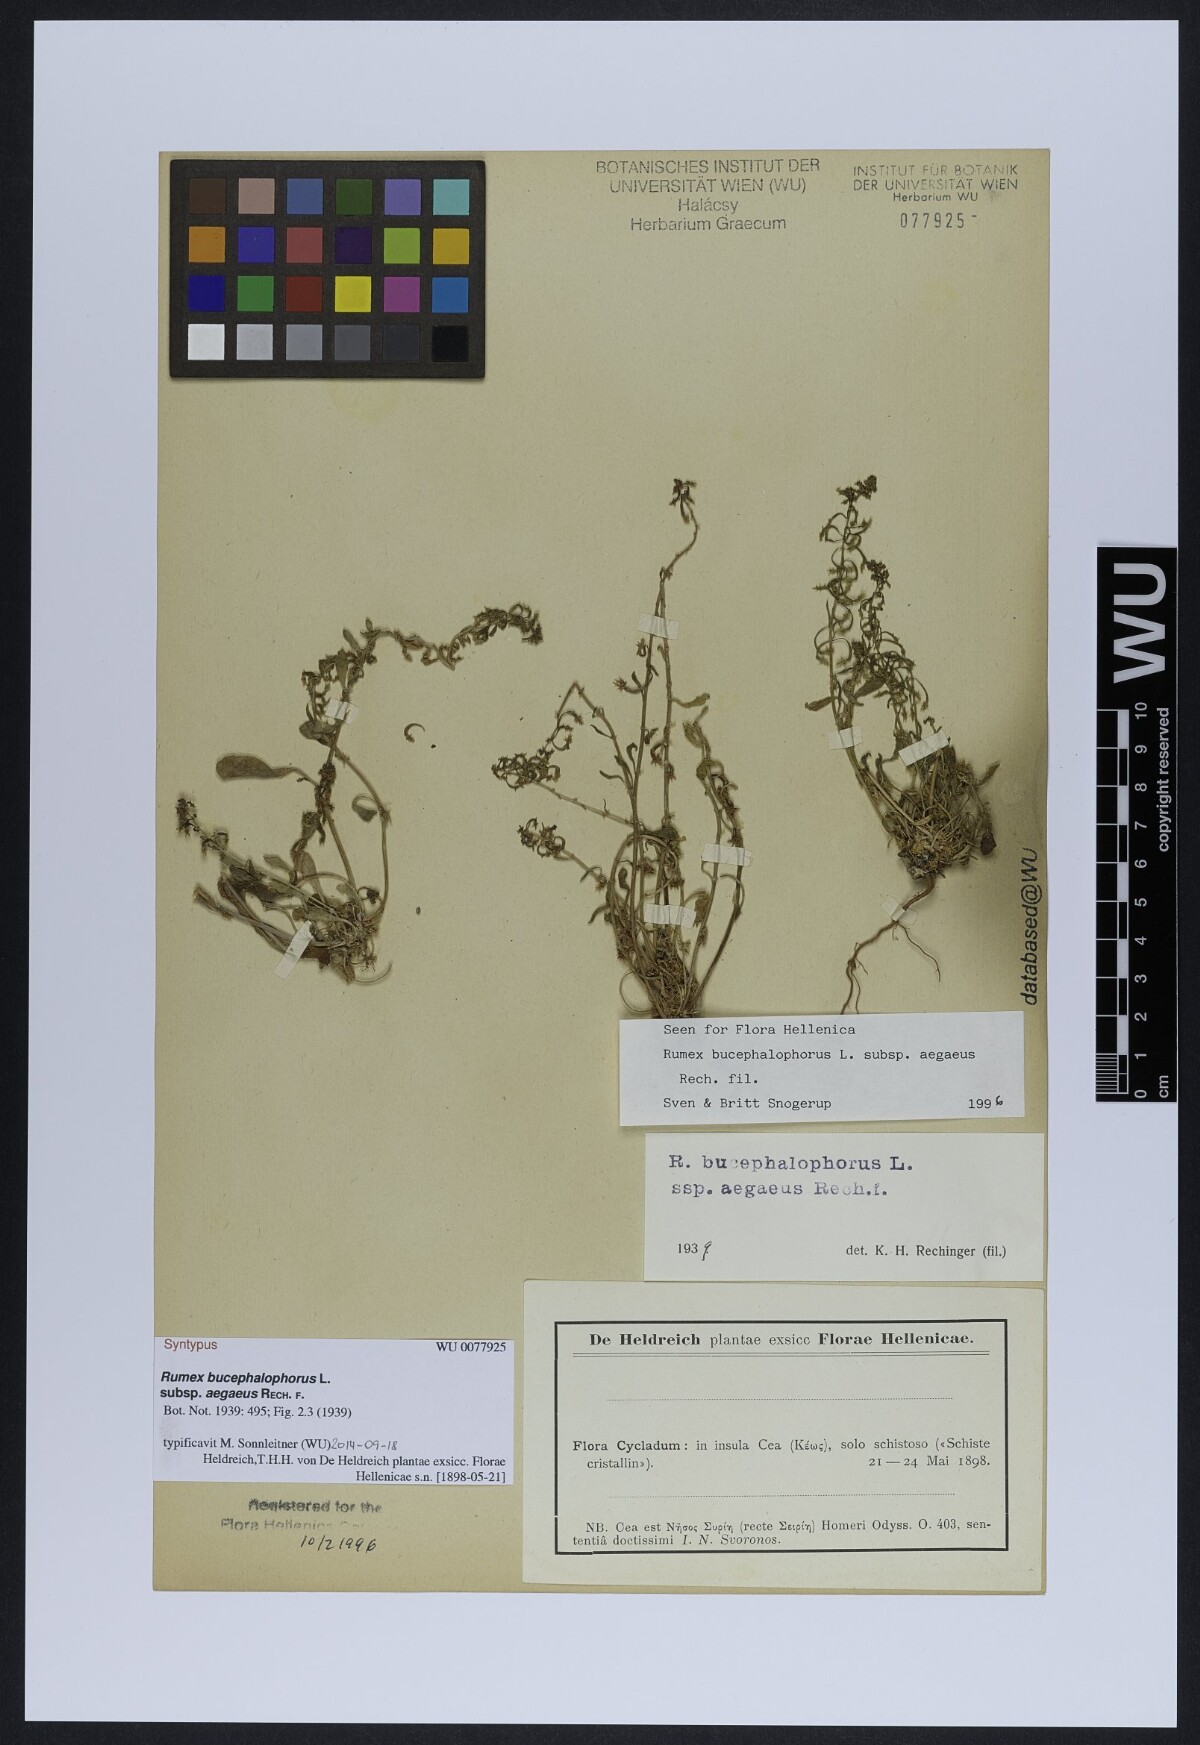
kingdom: Plantae
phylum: Tracheophyta
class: Magnoliopsida
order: Caryophyllales
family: Polygonaceae
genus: Rumex
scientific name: Rumex bucephalophorus
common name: Red dock
